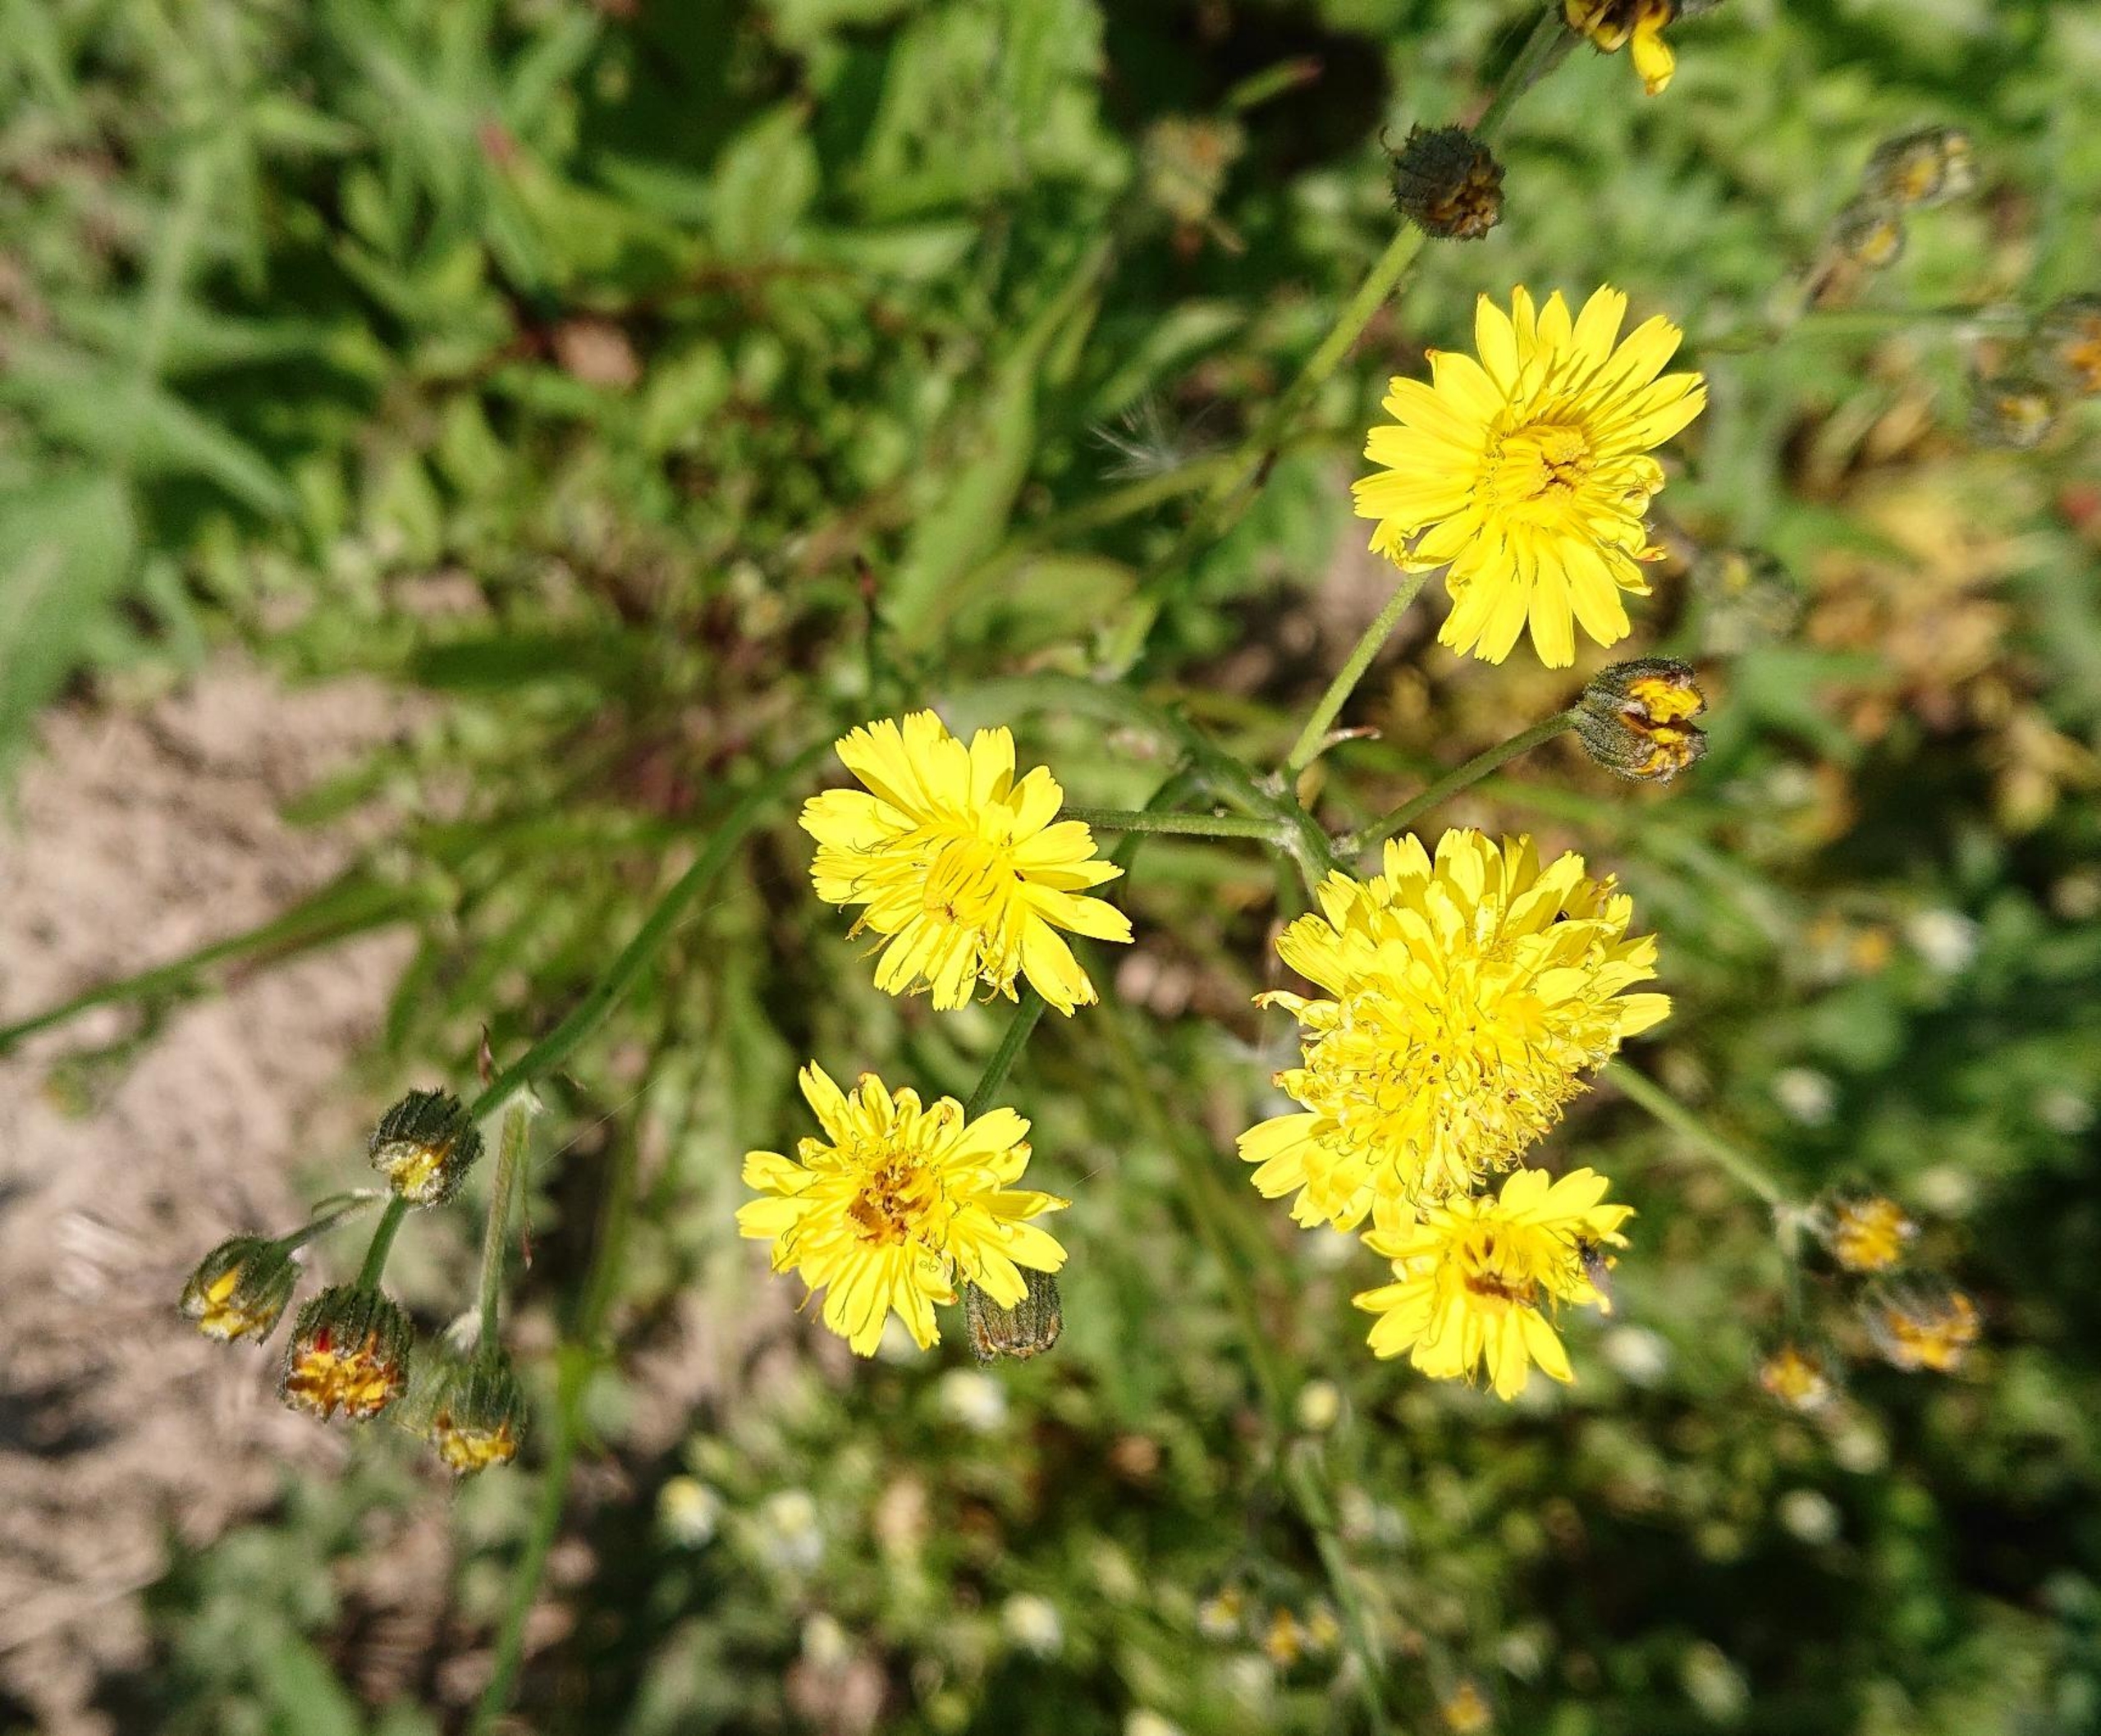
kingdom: Plantae
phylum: Tracheophyta
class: Magnoliopsida
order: Asterales
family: Asteraceae
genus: Crepis
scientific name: Crepis
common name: Høgeskægslægten
